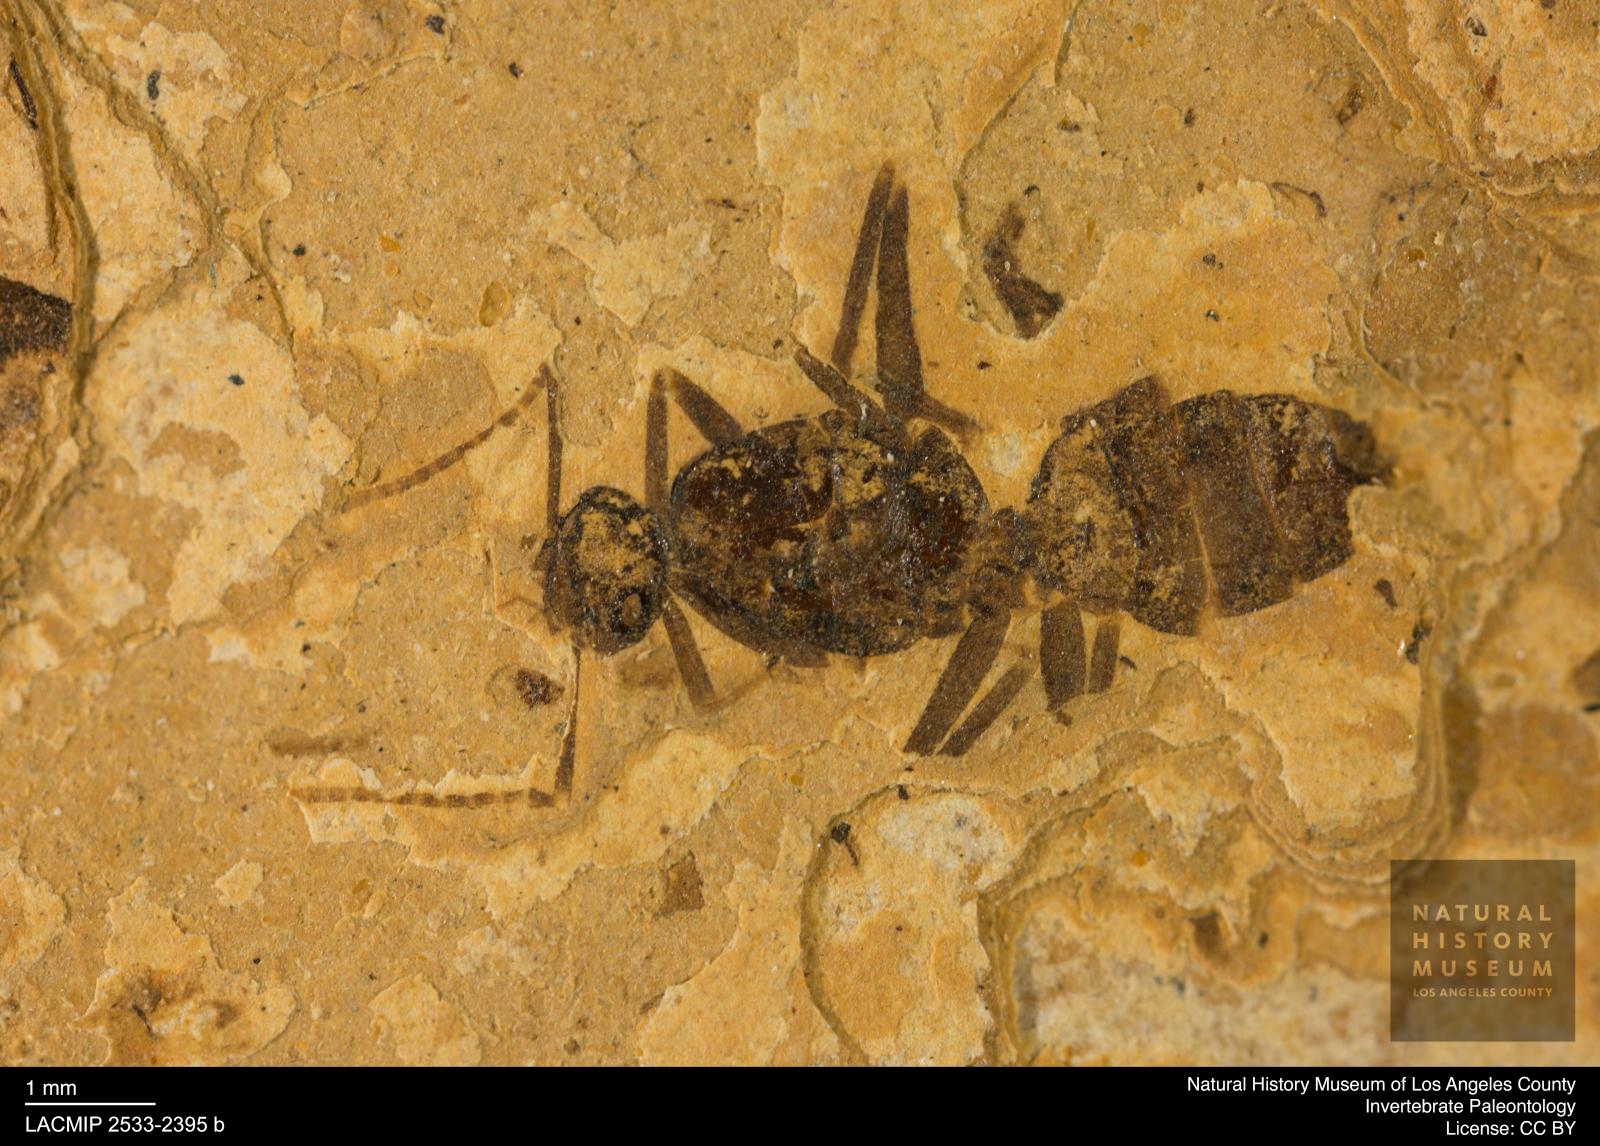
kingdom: Animalia
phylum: Arthropoda
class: Insecta
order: Hymenoptera
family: Formicidae
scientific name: Formicidae
